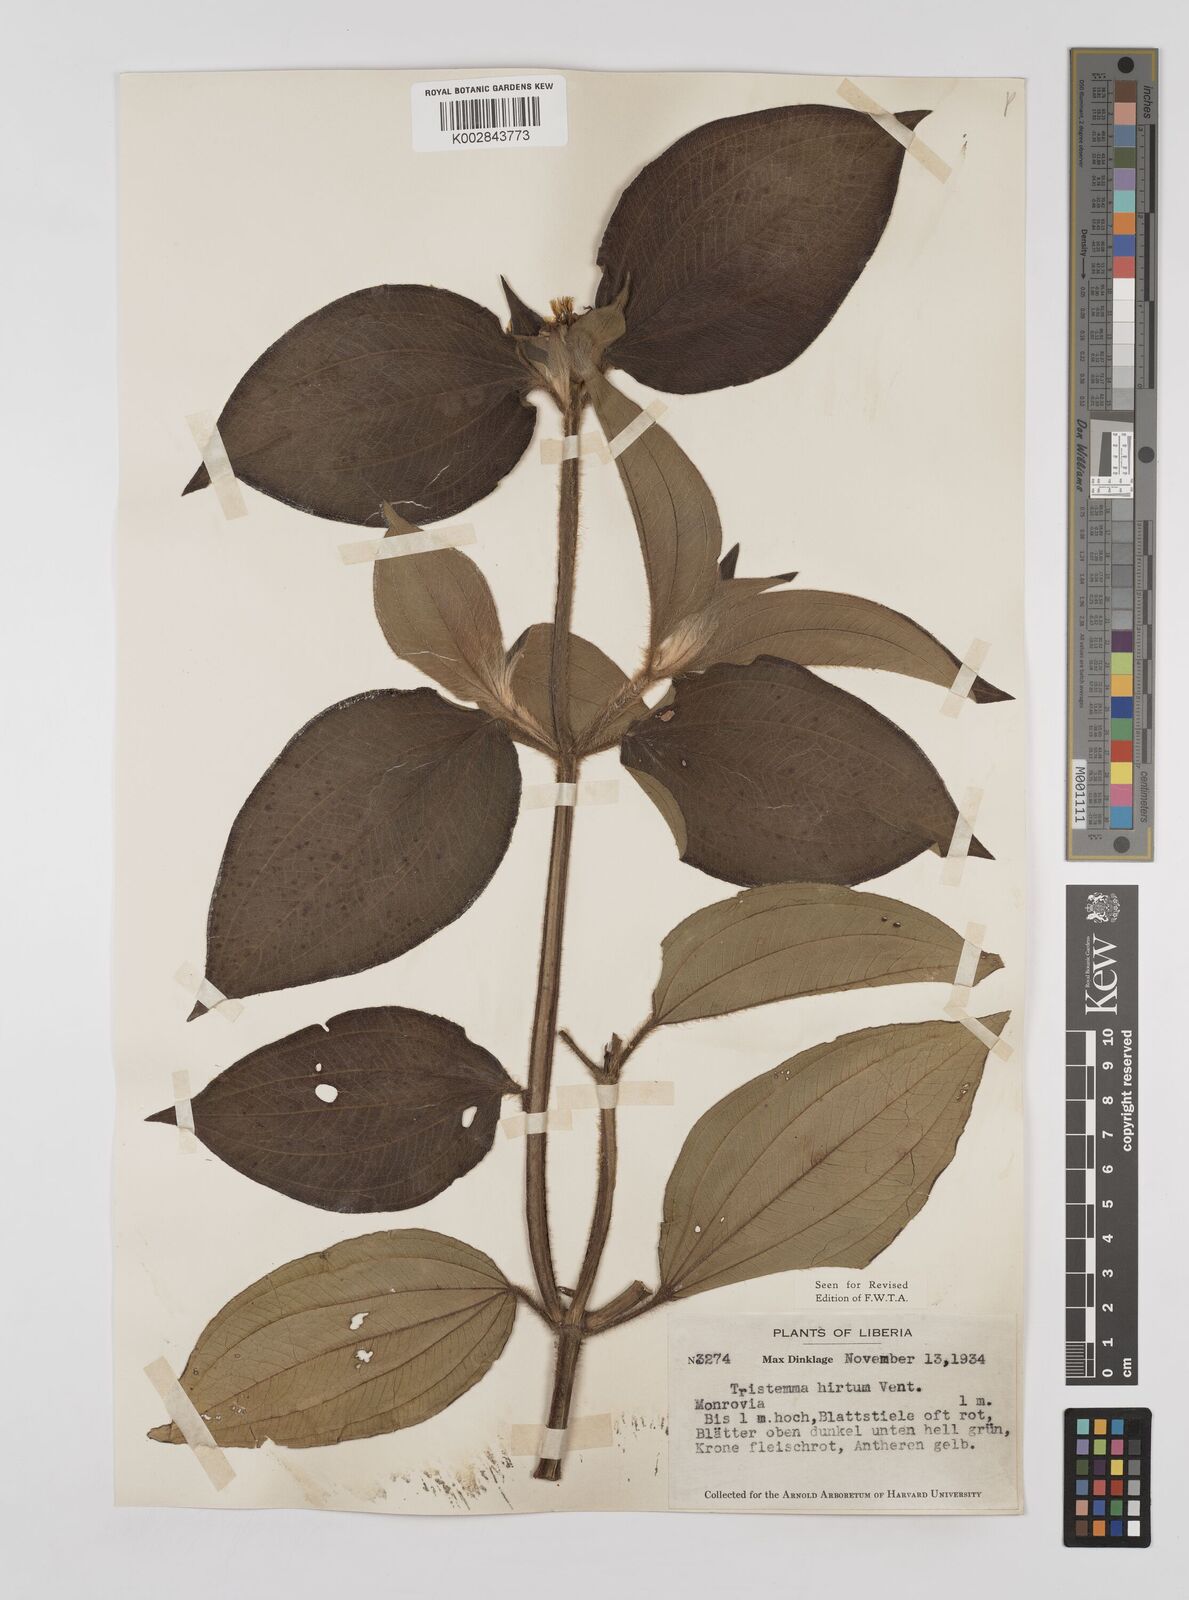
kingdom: Plantae
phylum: Tracheophyta
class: Magnoliopsida
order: Myrtales
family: Melastomataceae
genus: Tristemma
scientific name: Tristemma hirtum
